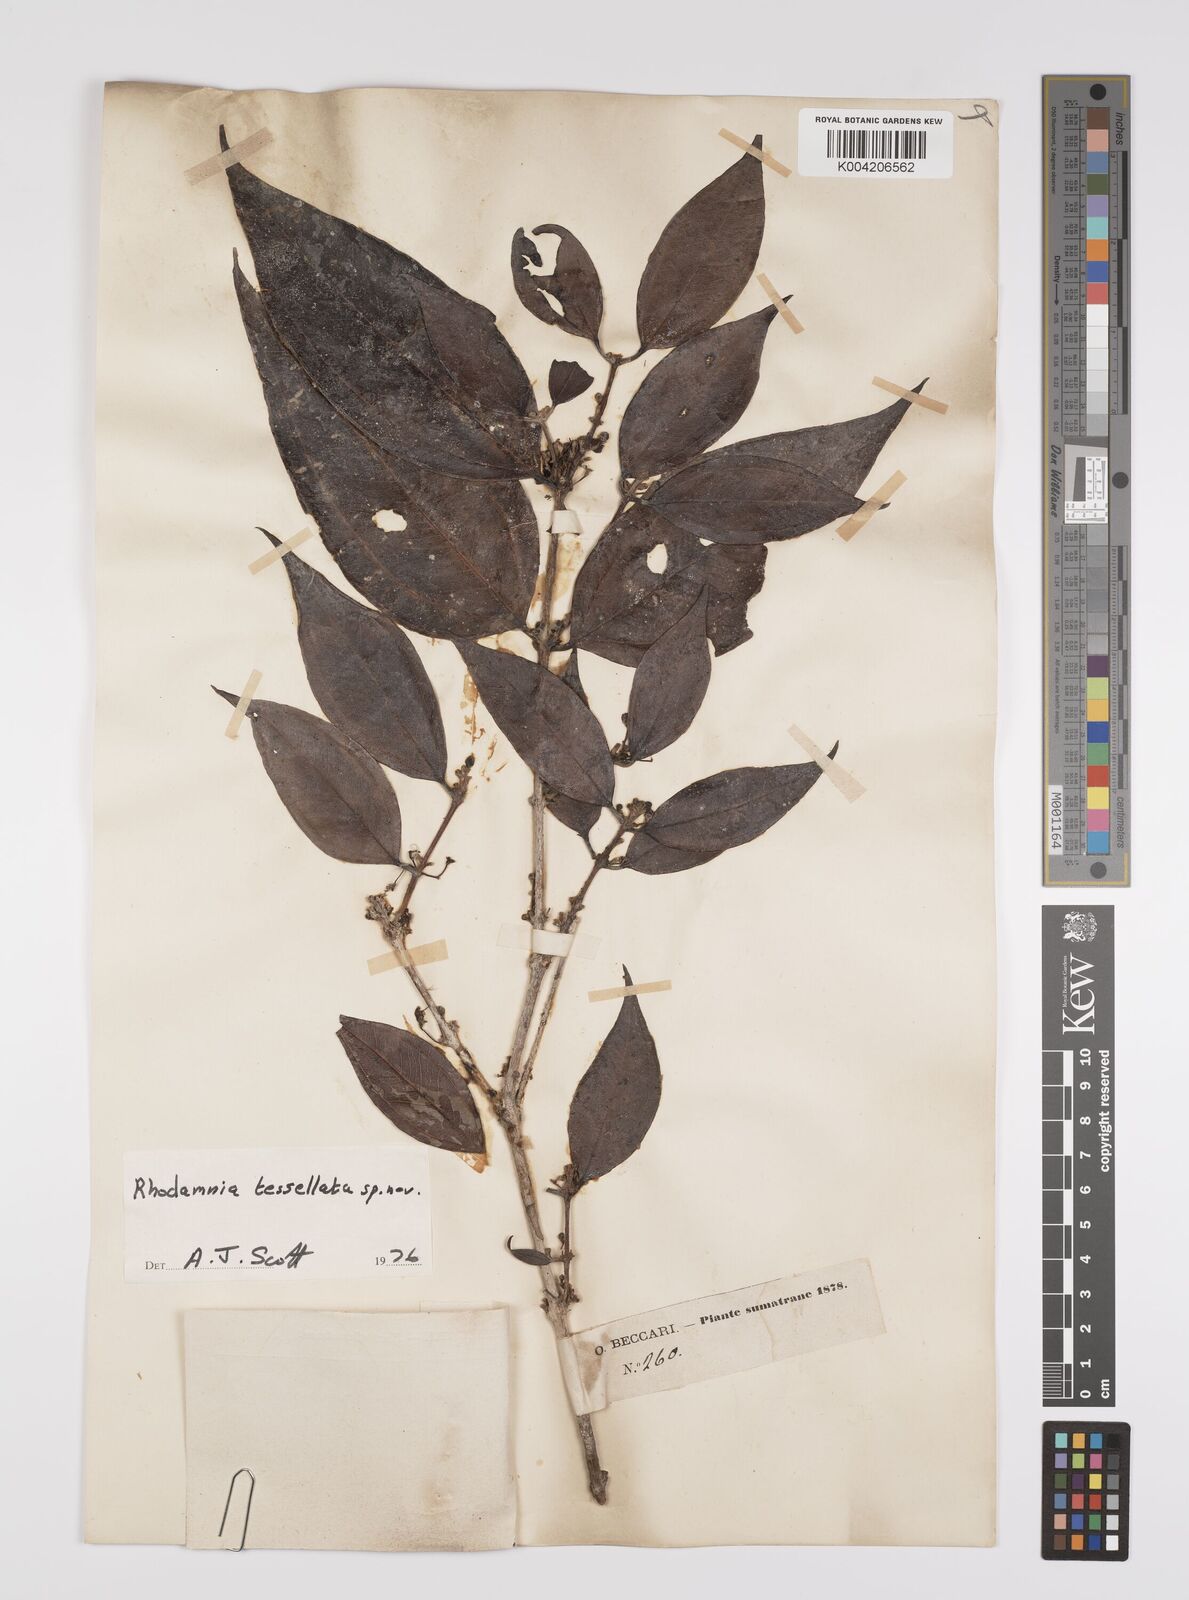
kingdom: Plantae
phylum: Tracheophyta
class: Magnoliopsida
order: Myrtales
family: Myrtaceae
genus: Rhodamnia
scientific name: Rhodamnia tessellata
